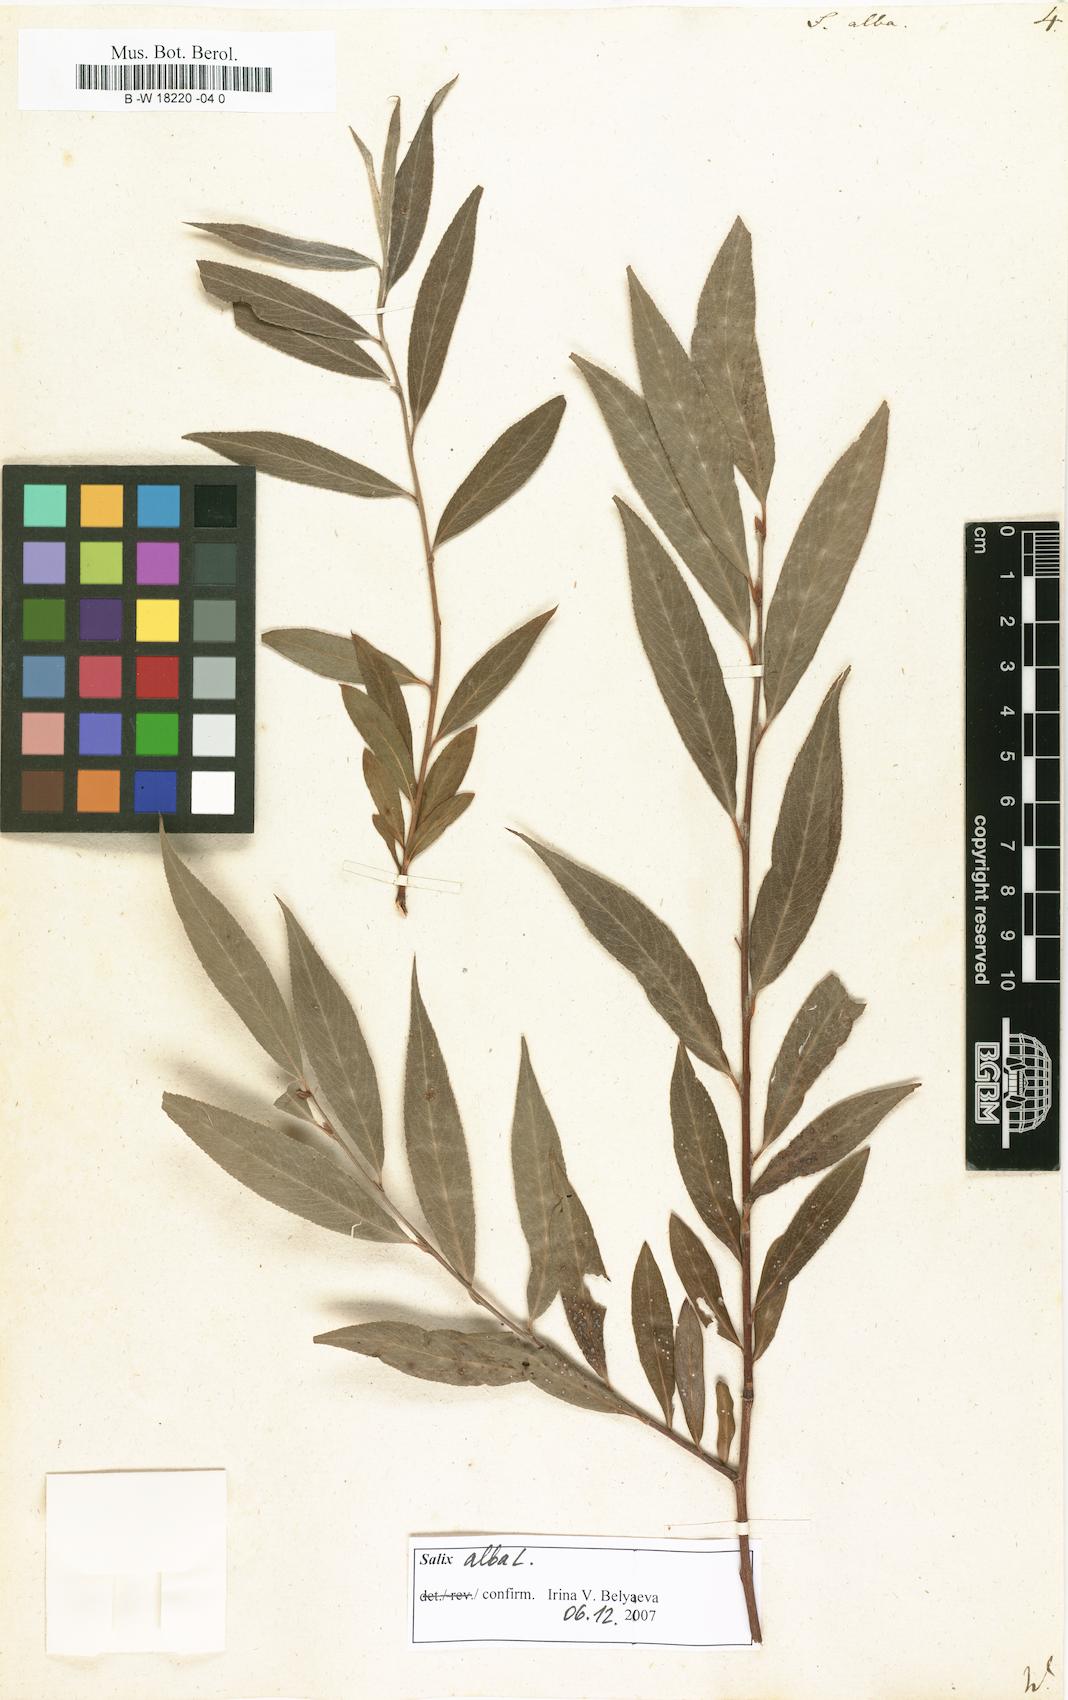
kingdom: Plantae
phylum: Tracheophyta
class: Magnoliopsida
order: Malpighiales
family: Salicaceae
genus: Salix
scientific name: Salix alba
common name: White willow
